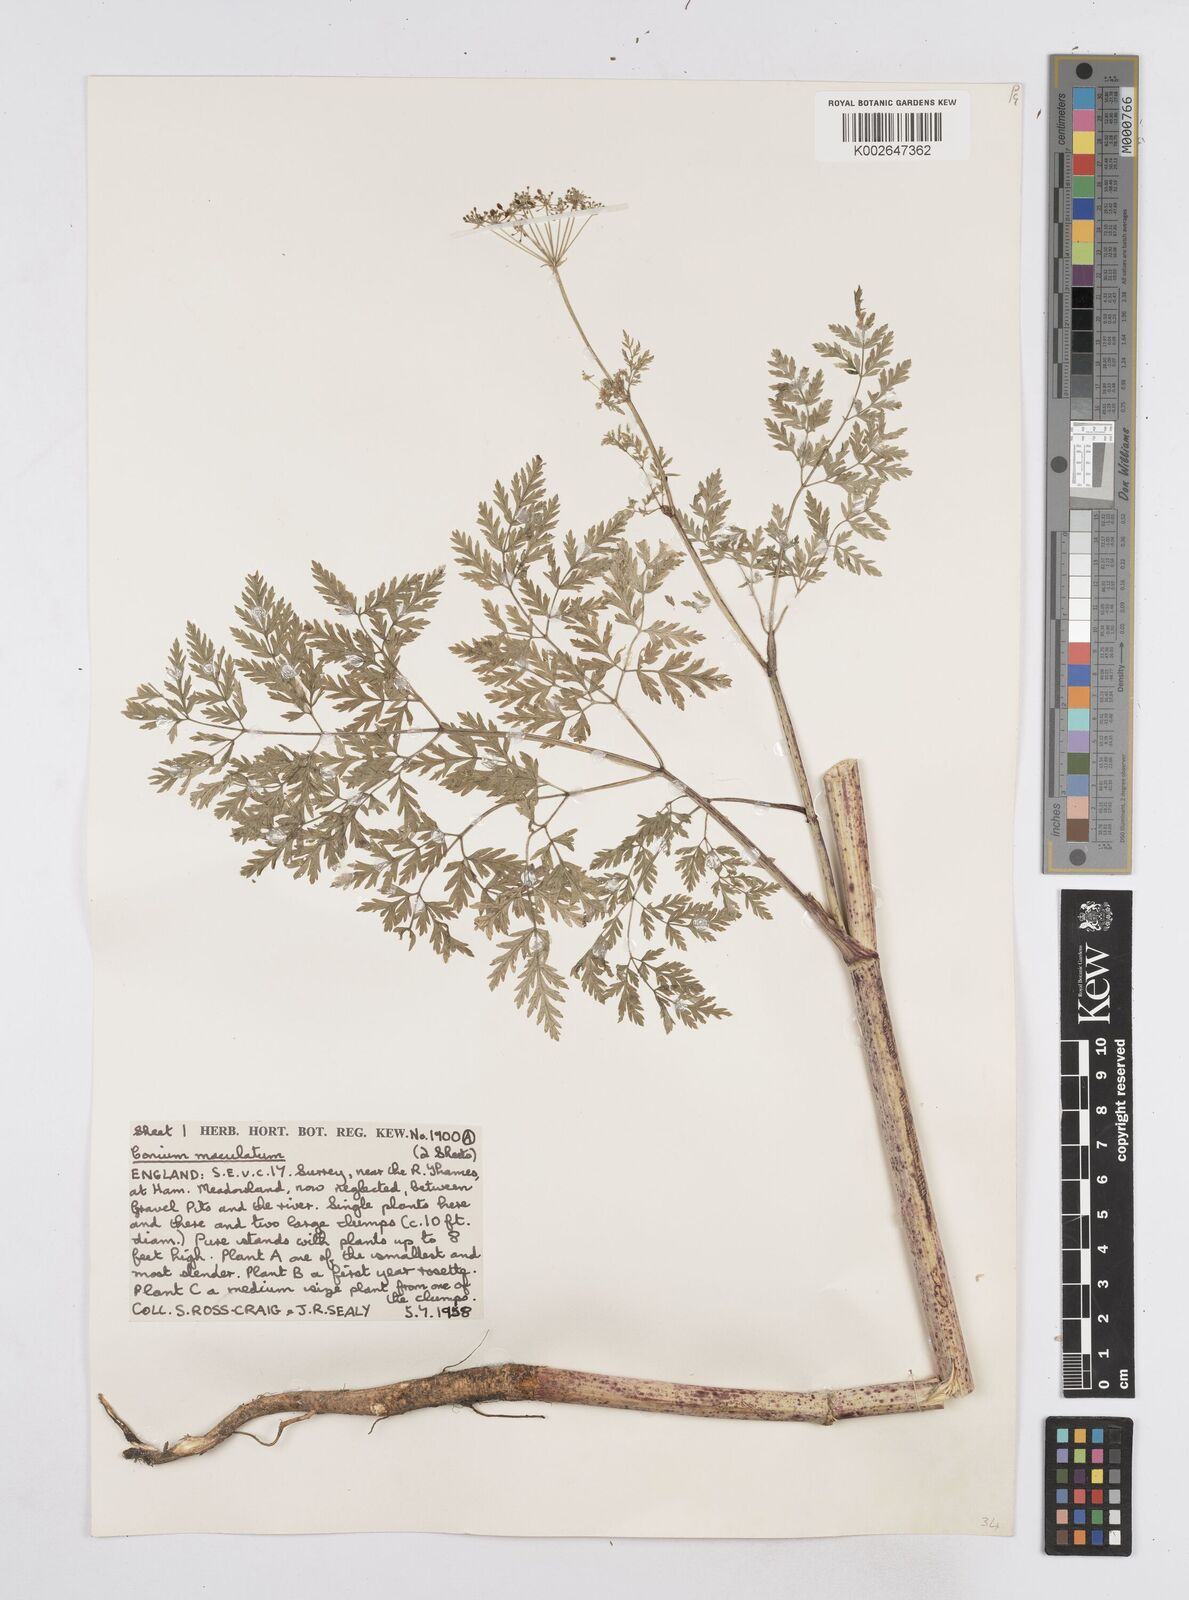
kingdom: Plantae
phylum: Tracheophyta
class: Magnoliopsida
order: Apiales
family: Apiaceae
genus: Conium
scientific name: Conium maculatum
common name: Hemlock
